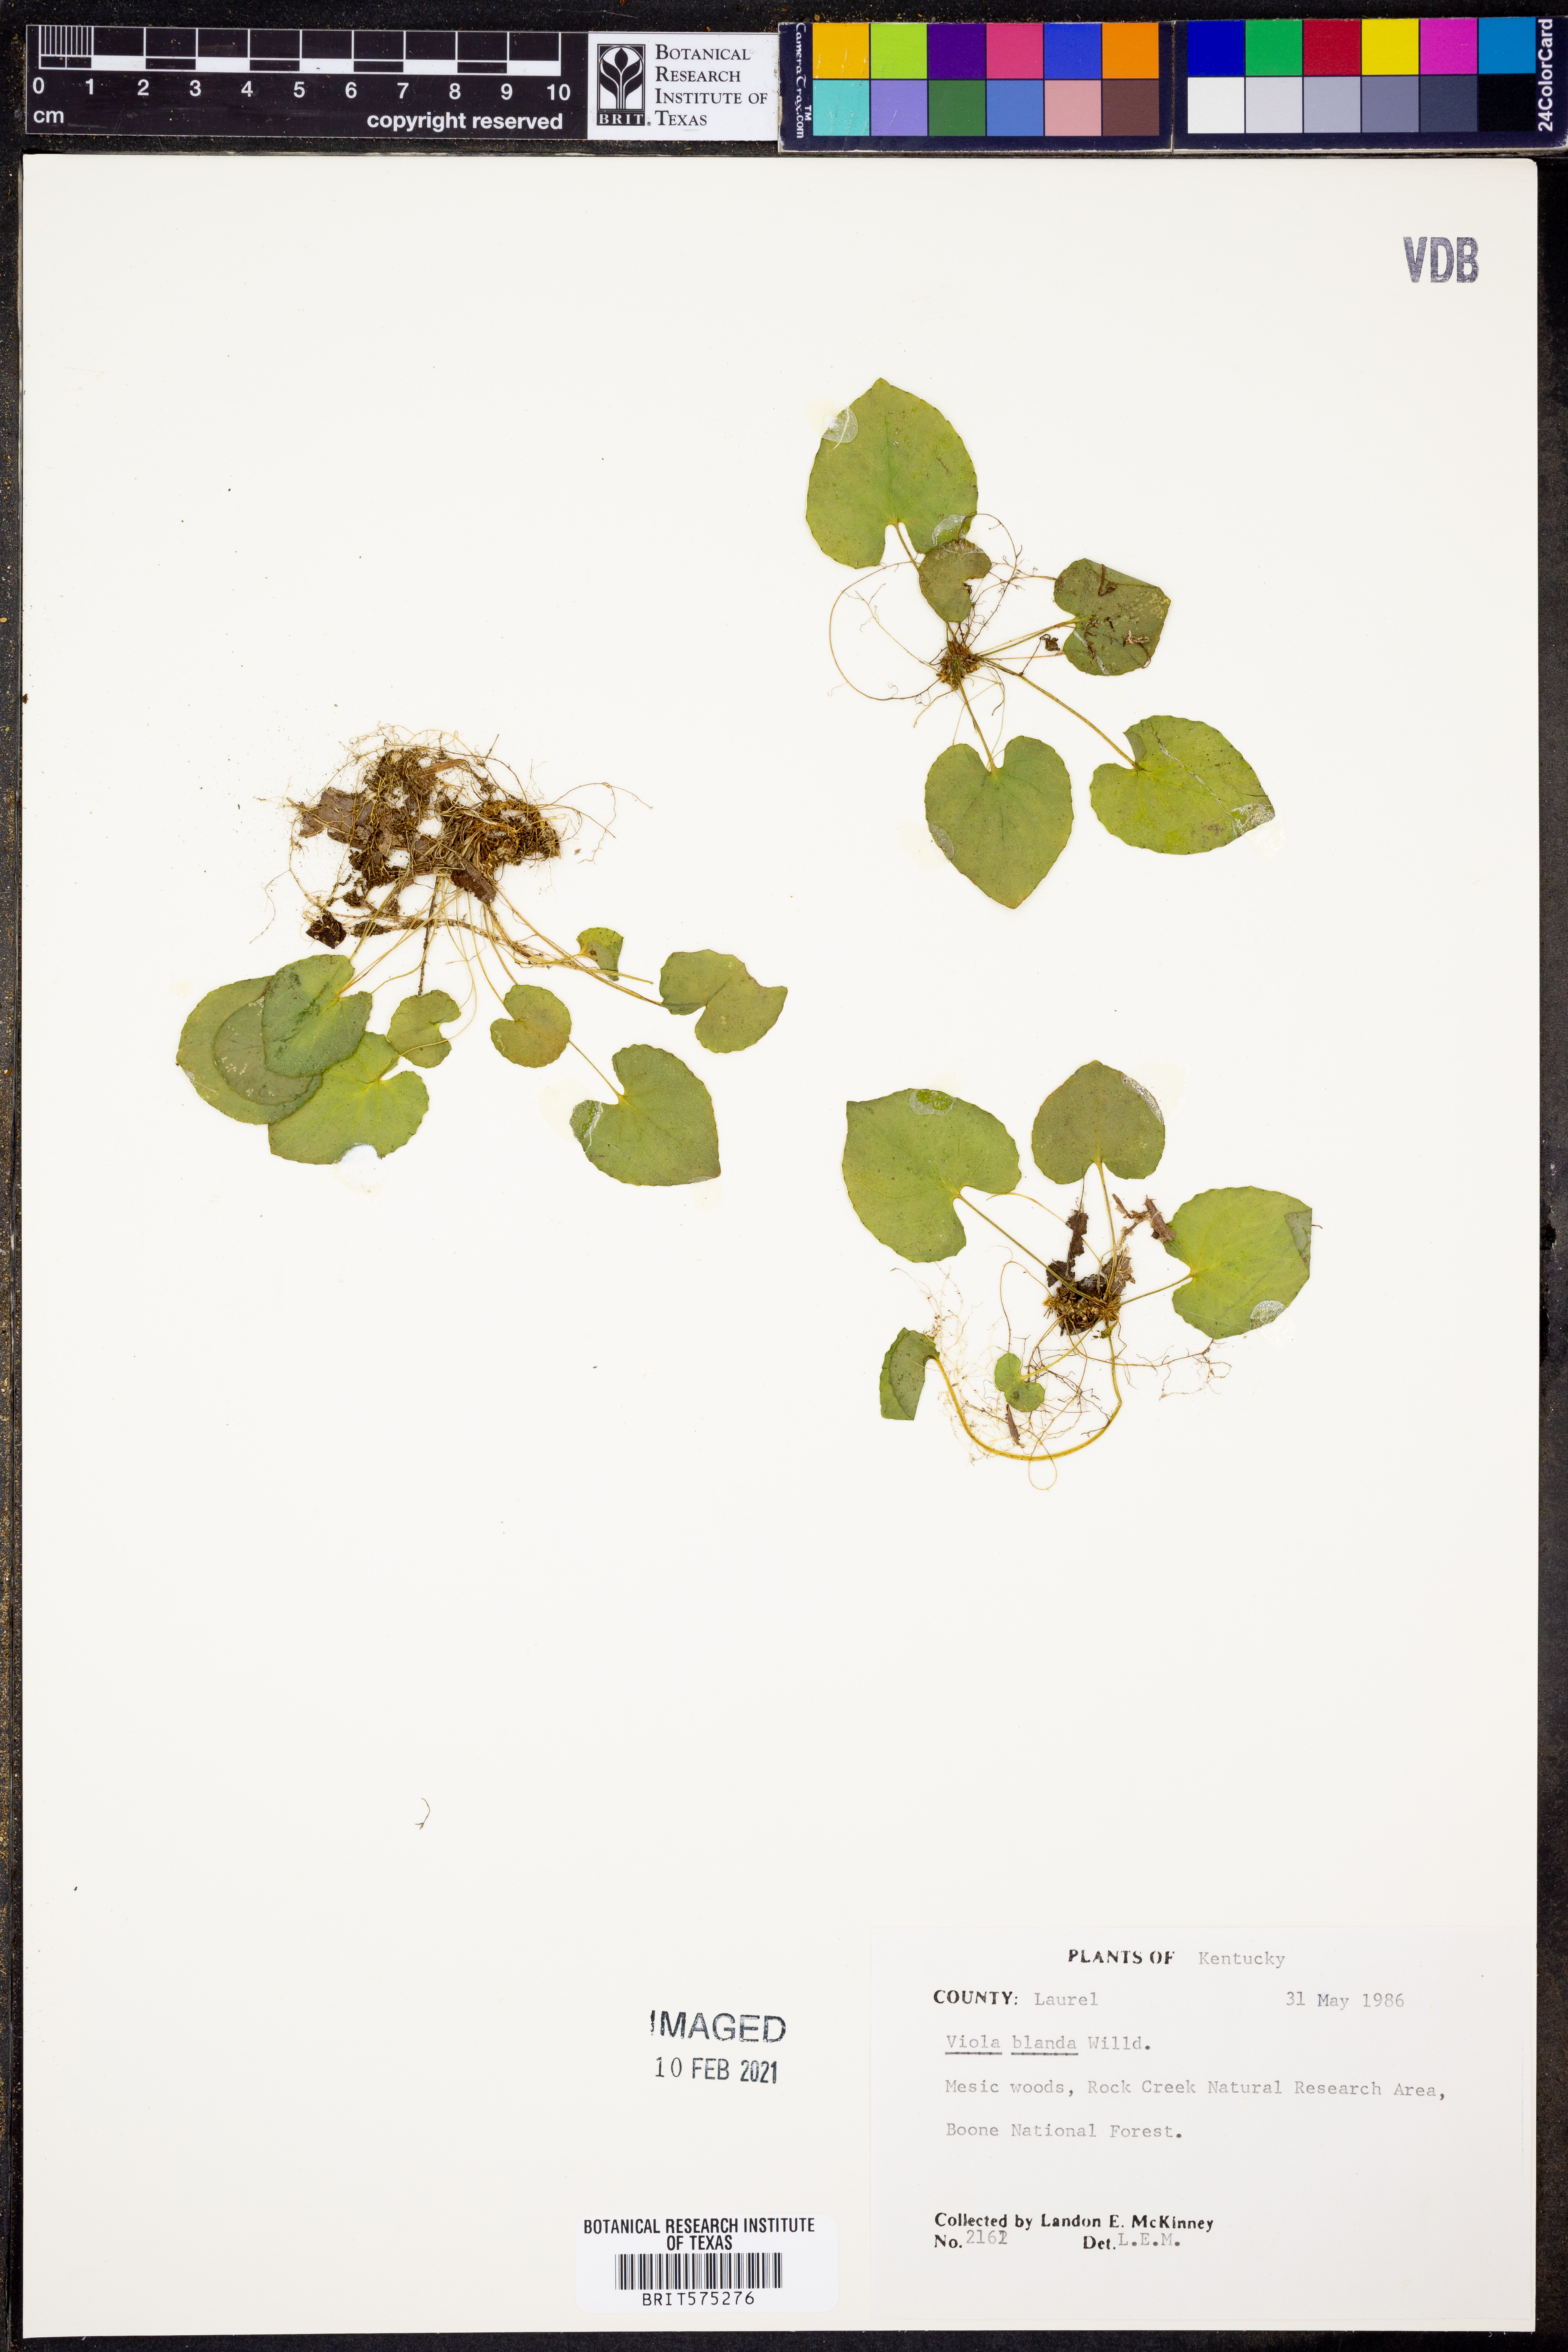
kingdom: Plantae
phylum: Tracheophyta
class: Magnoliopsida
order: Malpighiales
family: Violaceae
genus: Viola
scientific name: Viola blanda
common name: Sweet white violet
